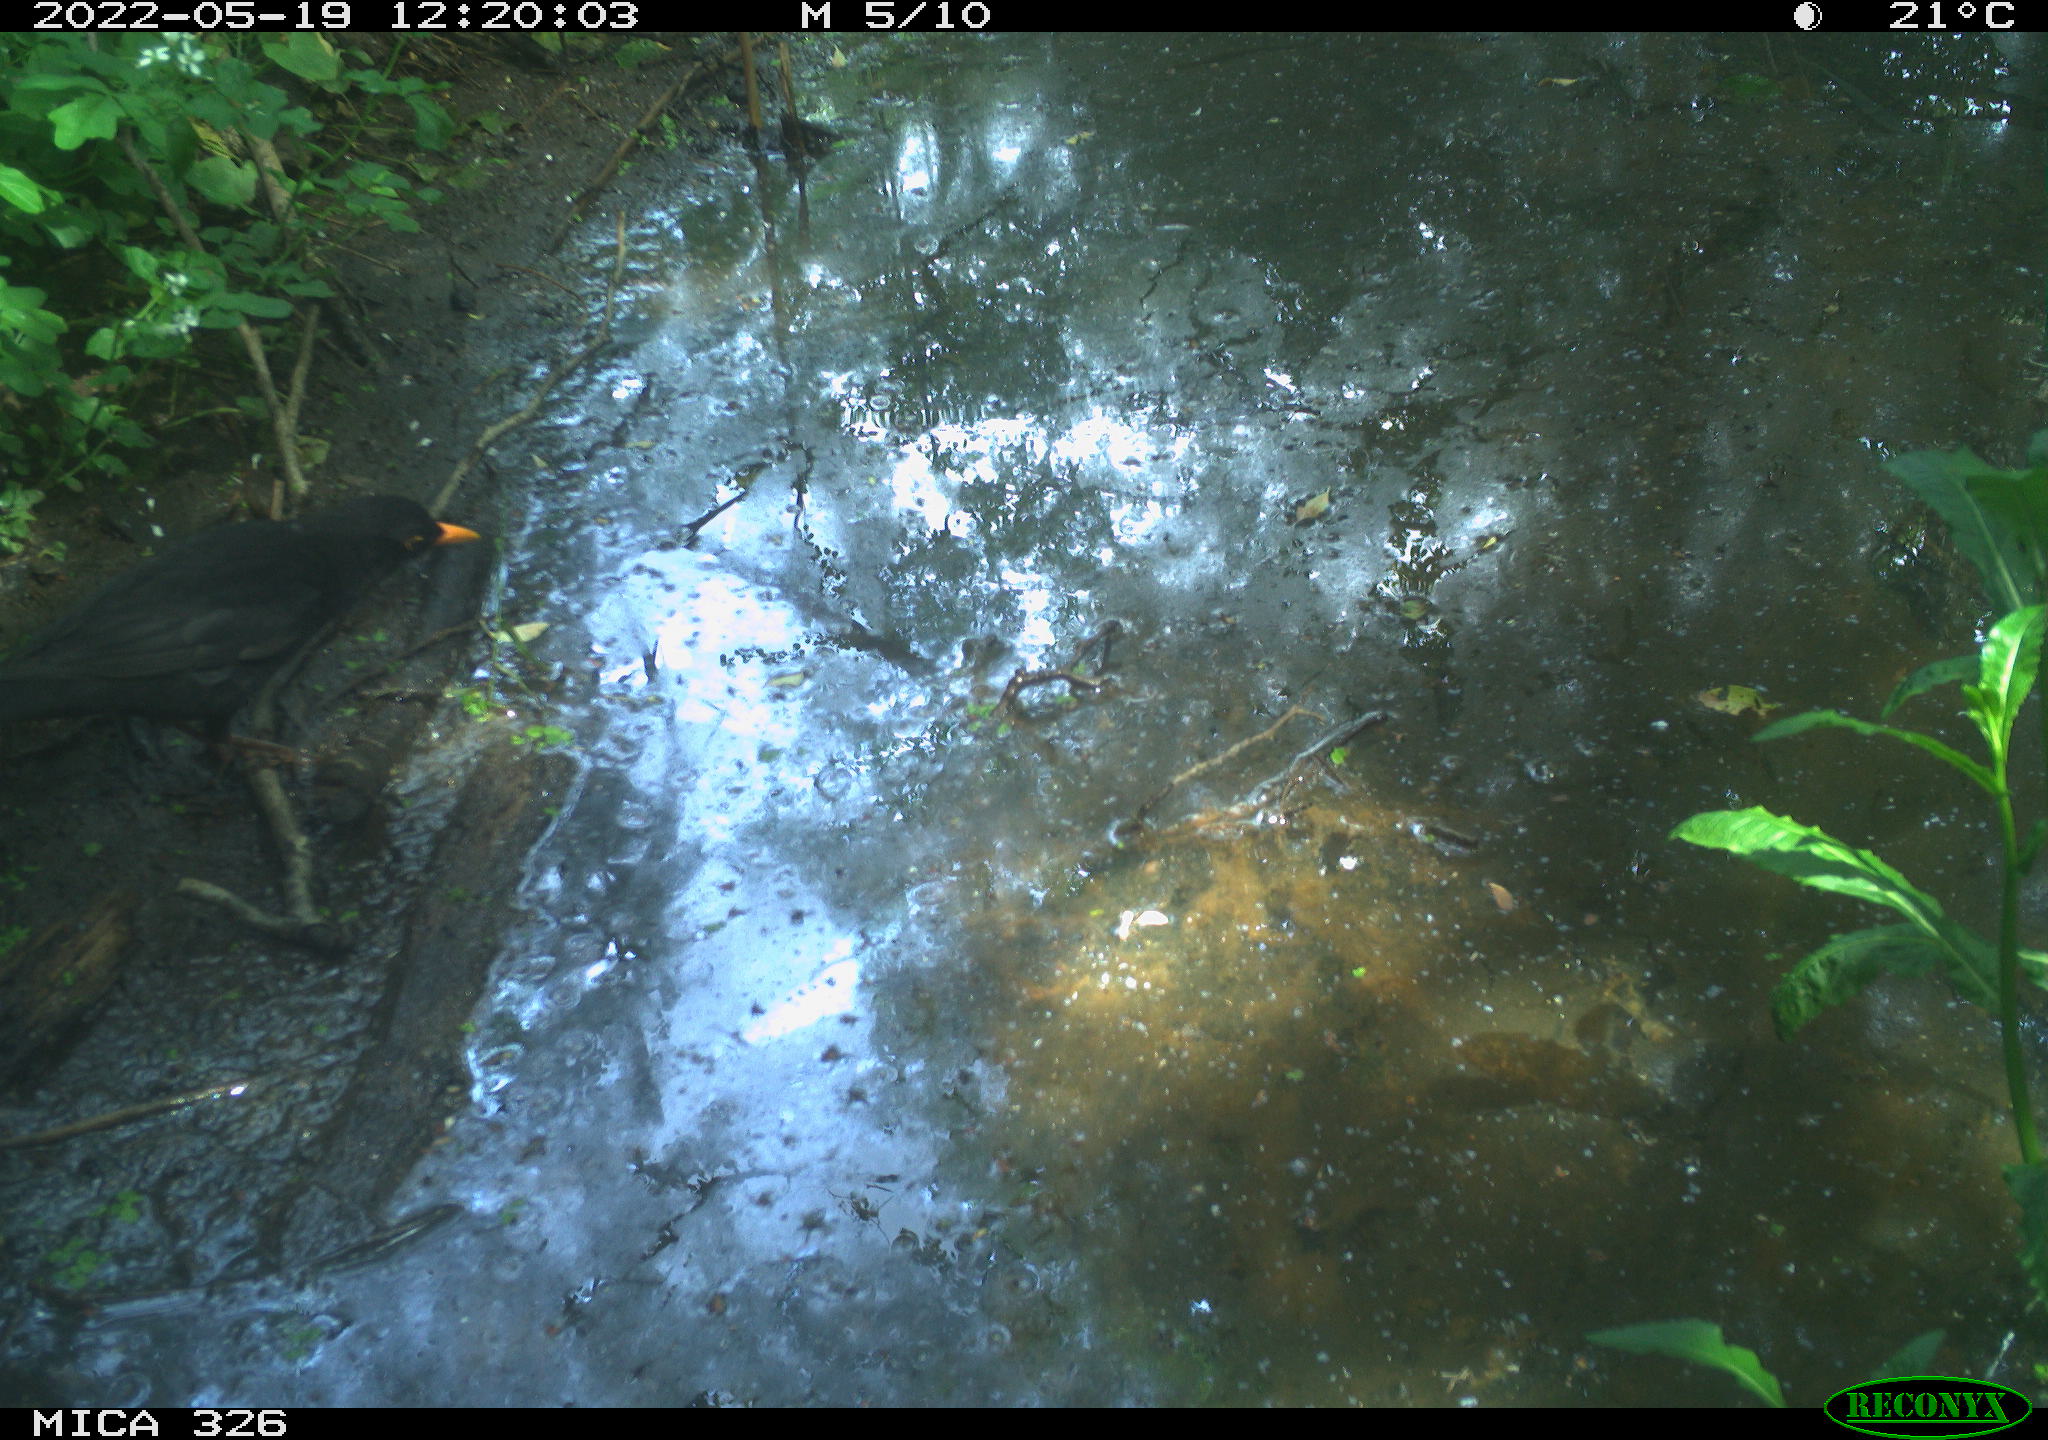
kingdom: Animalia
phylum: Chordata
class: Aves
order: Passeriformes
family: Turdidae
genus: Turdus
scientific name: Turdus merula
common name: Common blackbird
